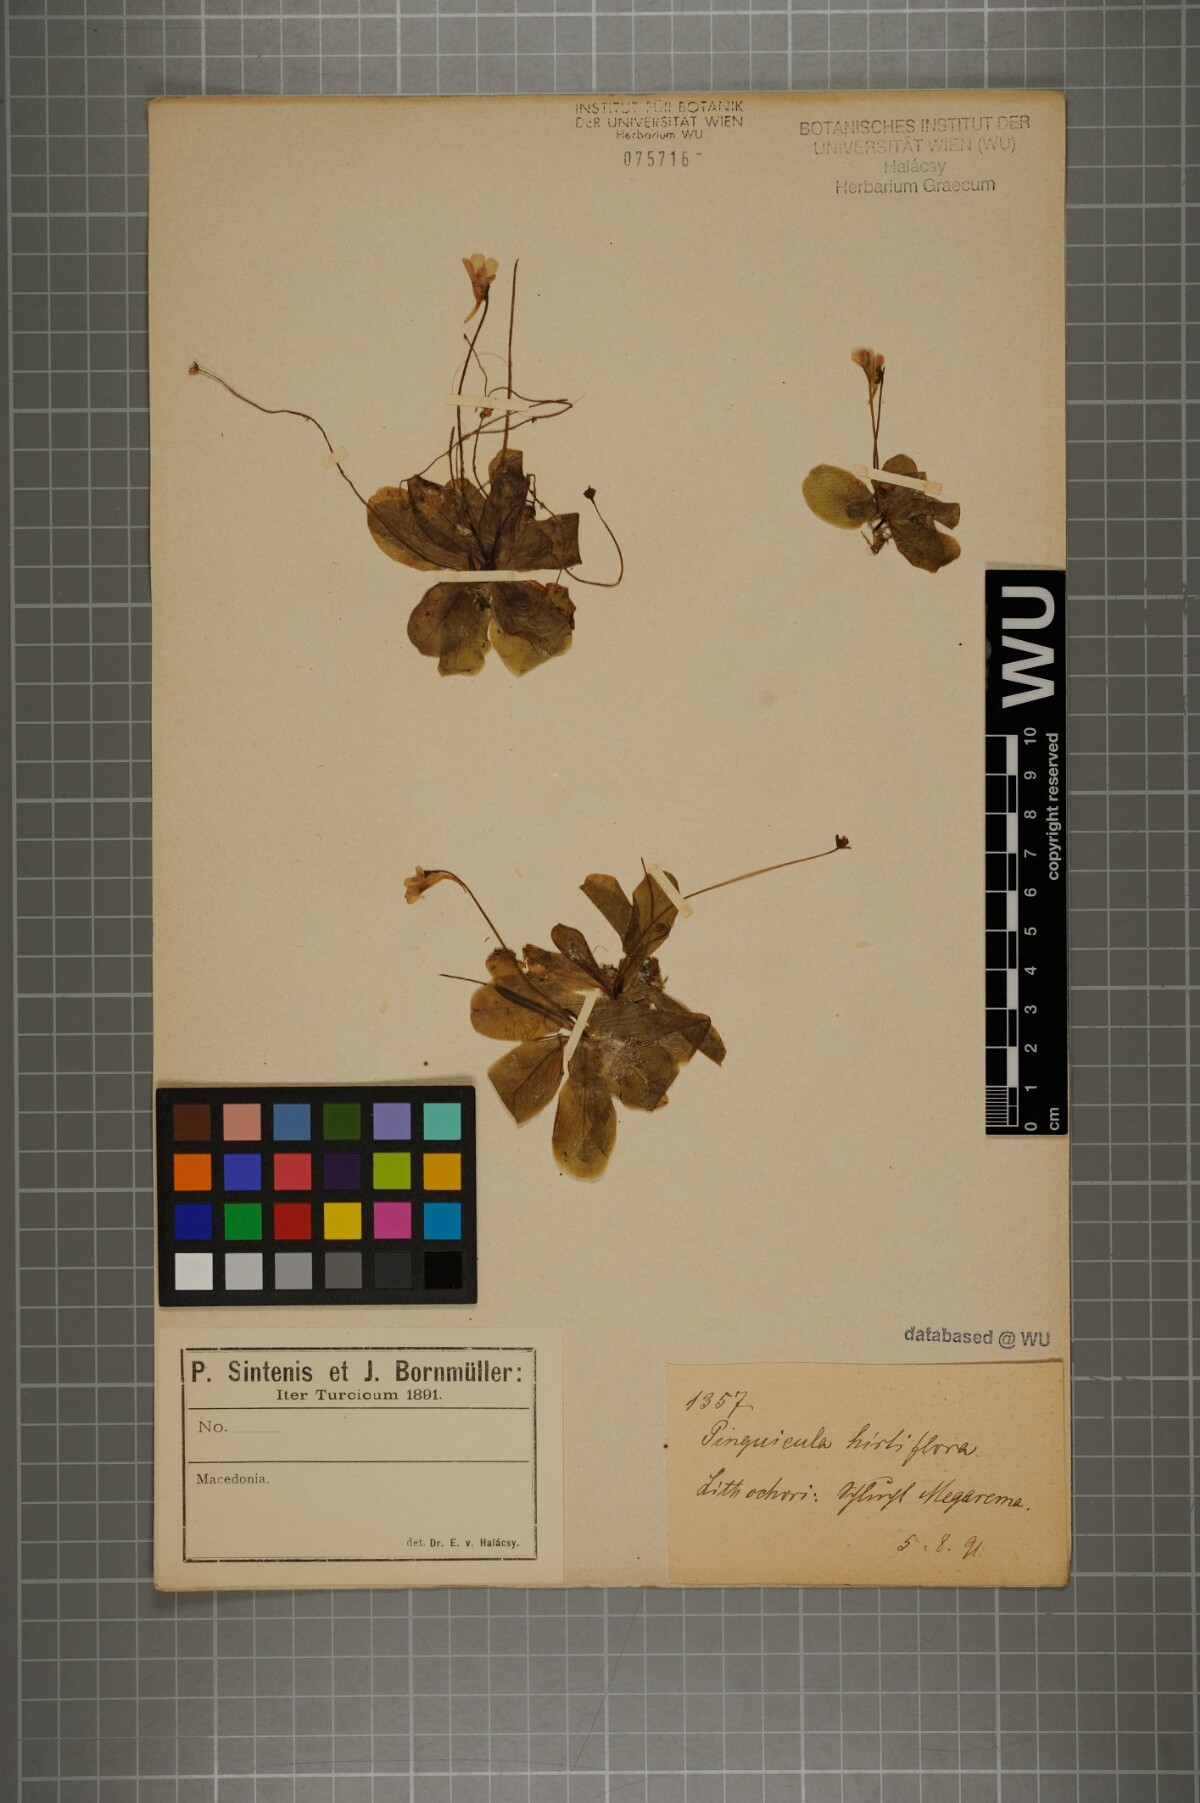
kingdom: Plantae
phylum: Tracheophyta
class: Magnoliopsida
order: Lamiales
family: Lentibulariaceae
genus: Pinguicula
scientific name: Pinguicula crystallina
